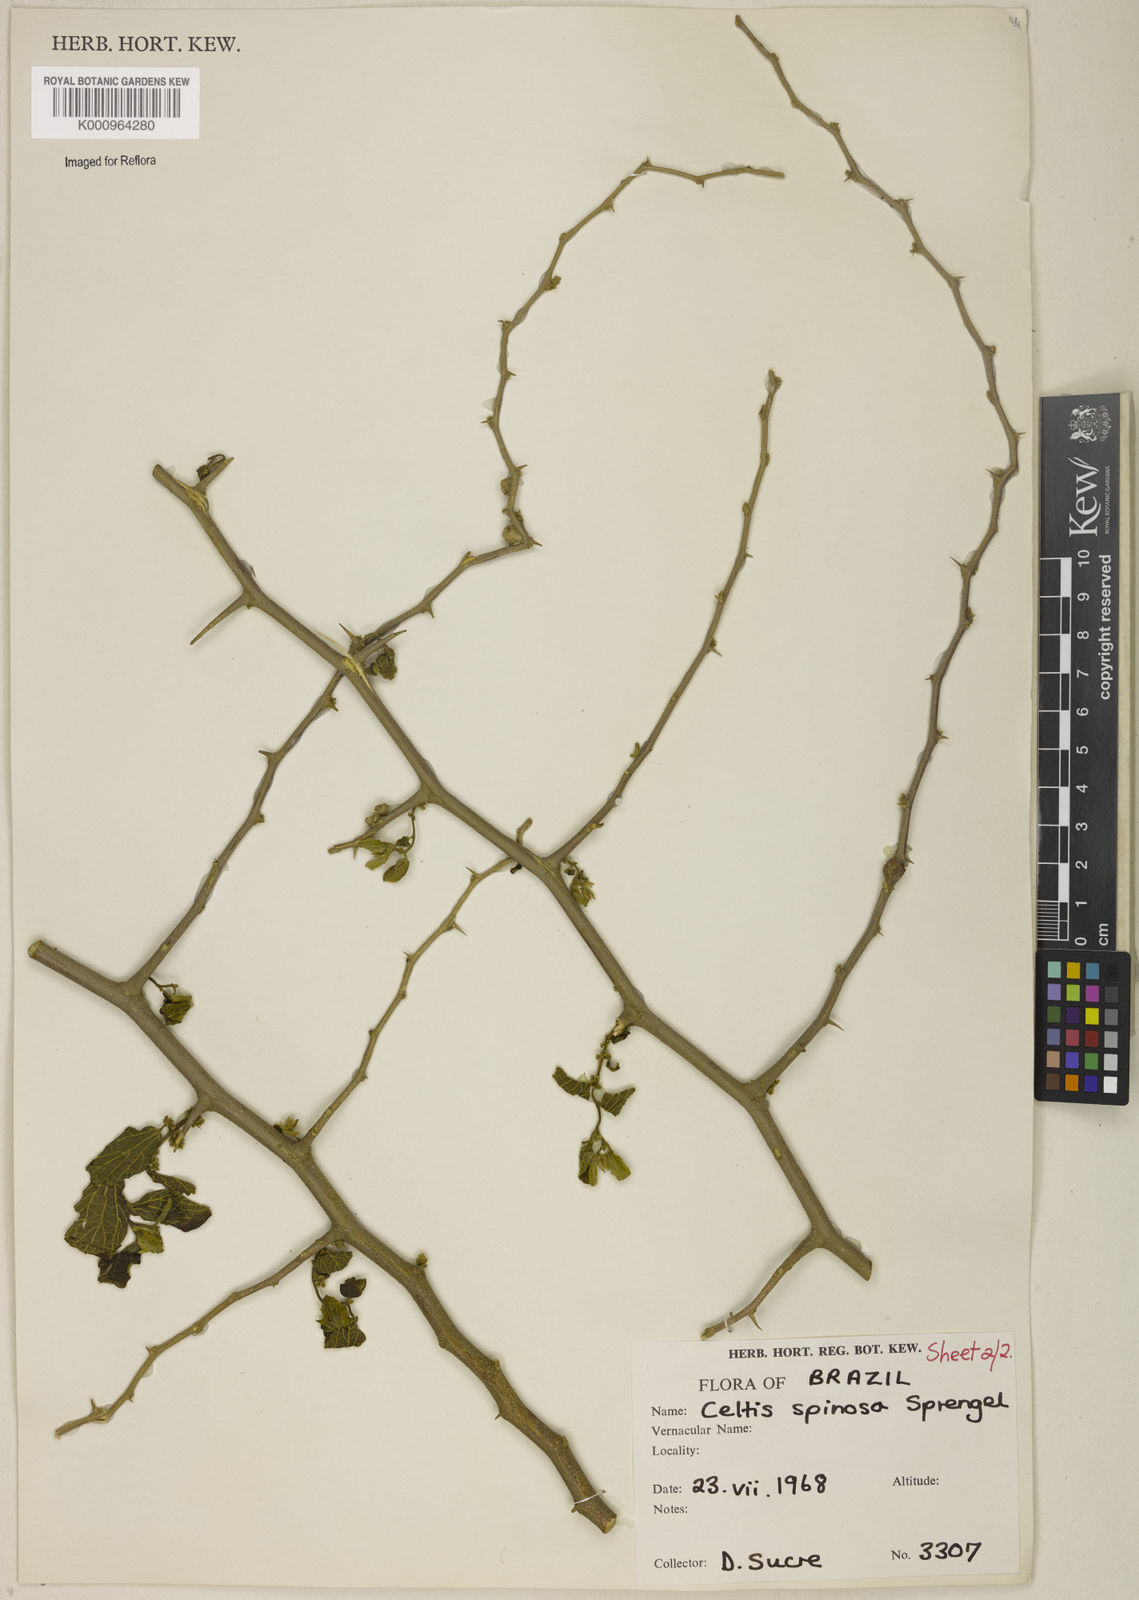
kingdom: Plantae
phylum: Tracheophyta
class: Magnoliopsida
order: Rosales
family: Cannabaceae
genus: Celtis
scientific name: Celtis spinosa
